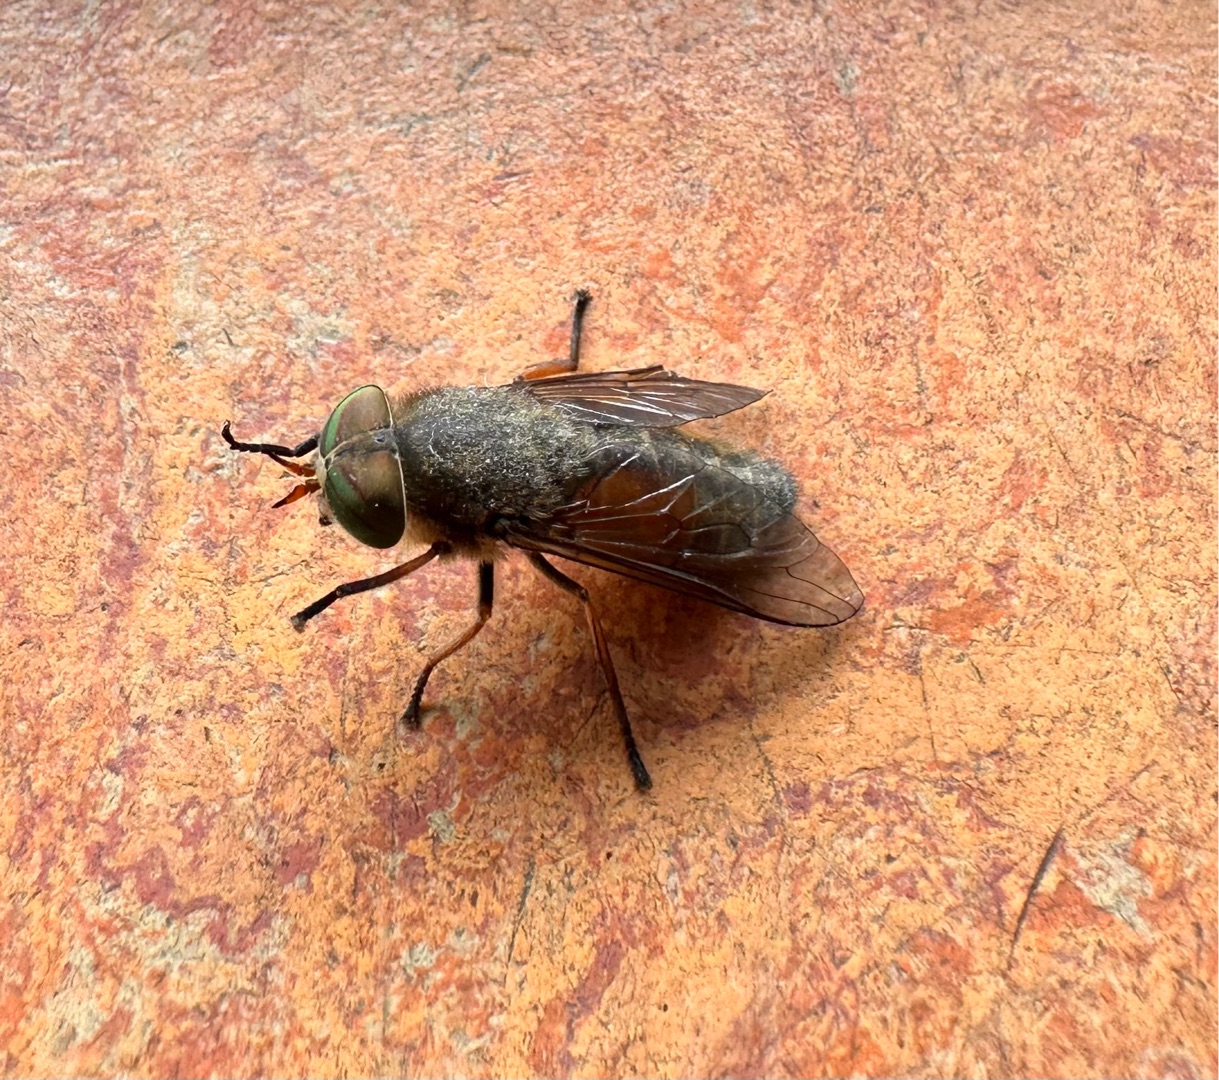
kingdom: Animalia
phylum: Arthropoda
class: Insecta
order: Diptera
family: Tabanidae
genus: Hybomitra
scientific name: Hybomitra solstitialis
